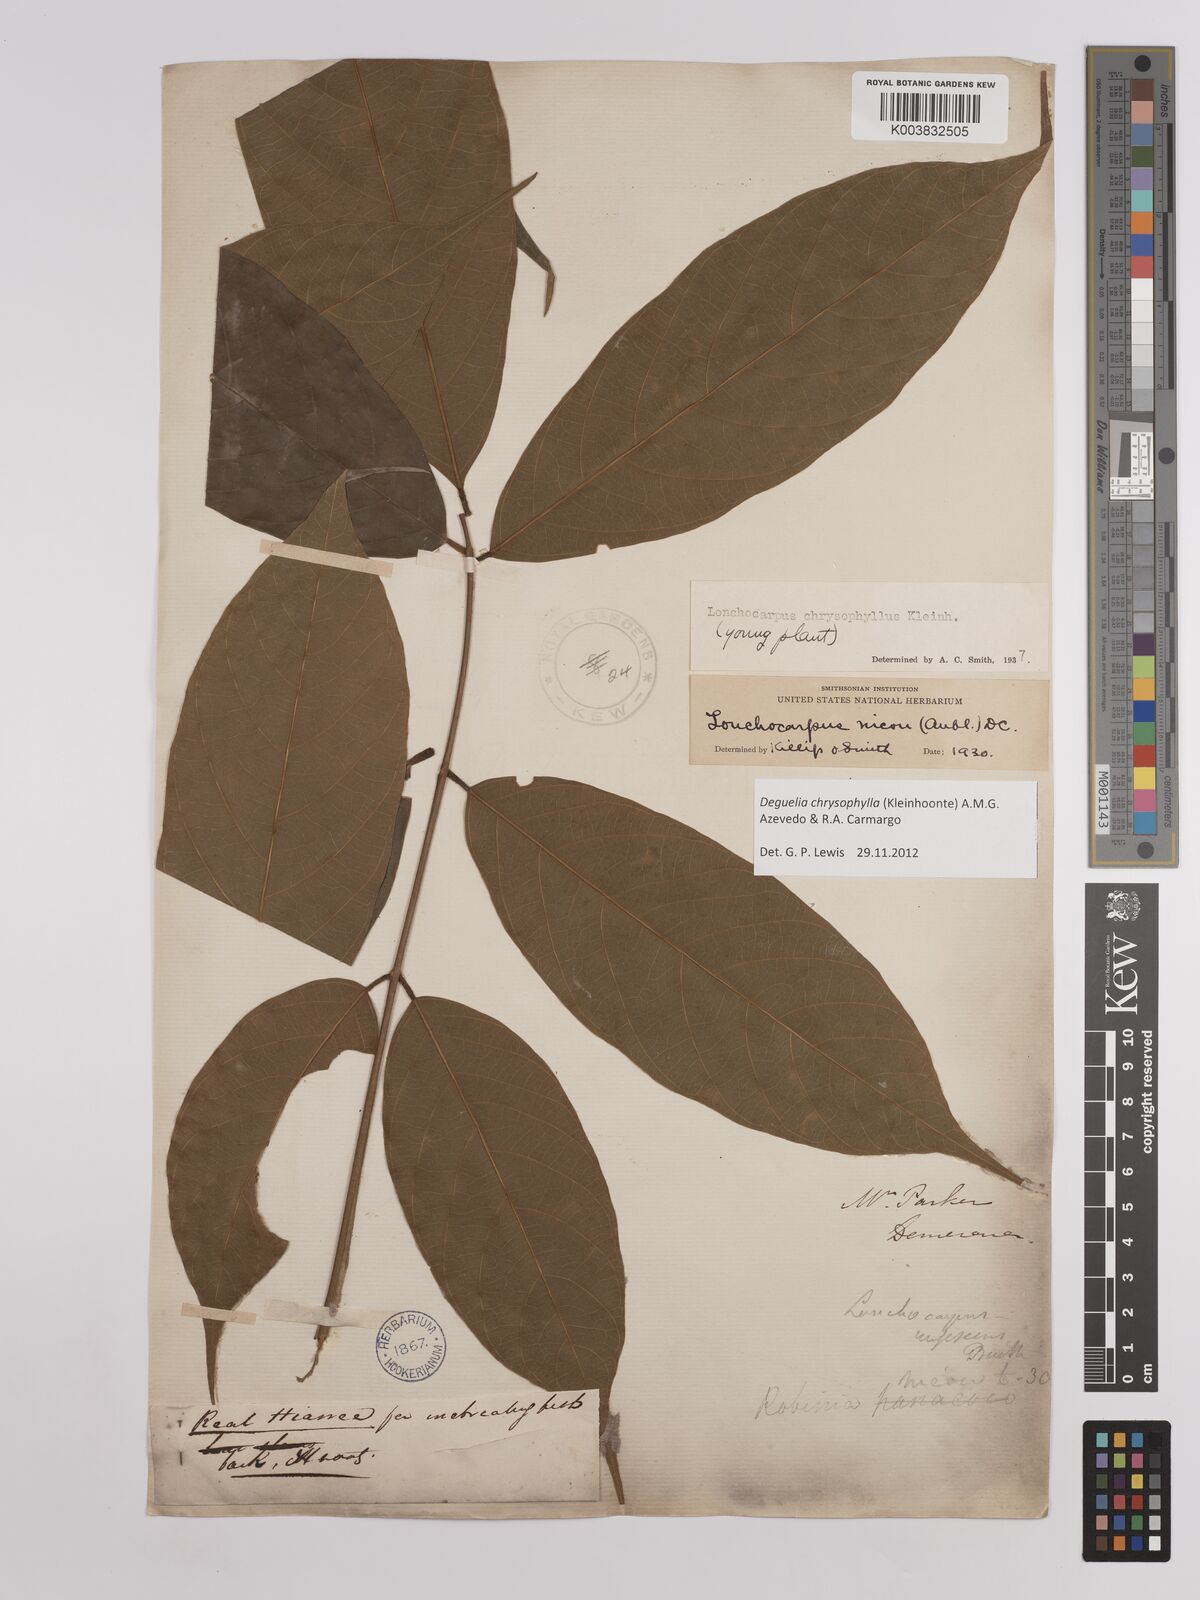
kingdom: Plantae
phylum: Tracheophyta
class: Magnoliopsida
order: Fabales
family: Fabaceae
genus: Deguelia
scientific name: Deguelia chrysophylla
